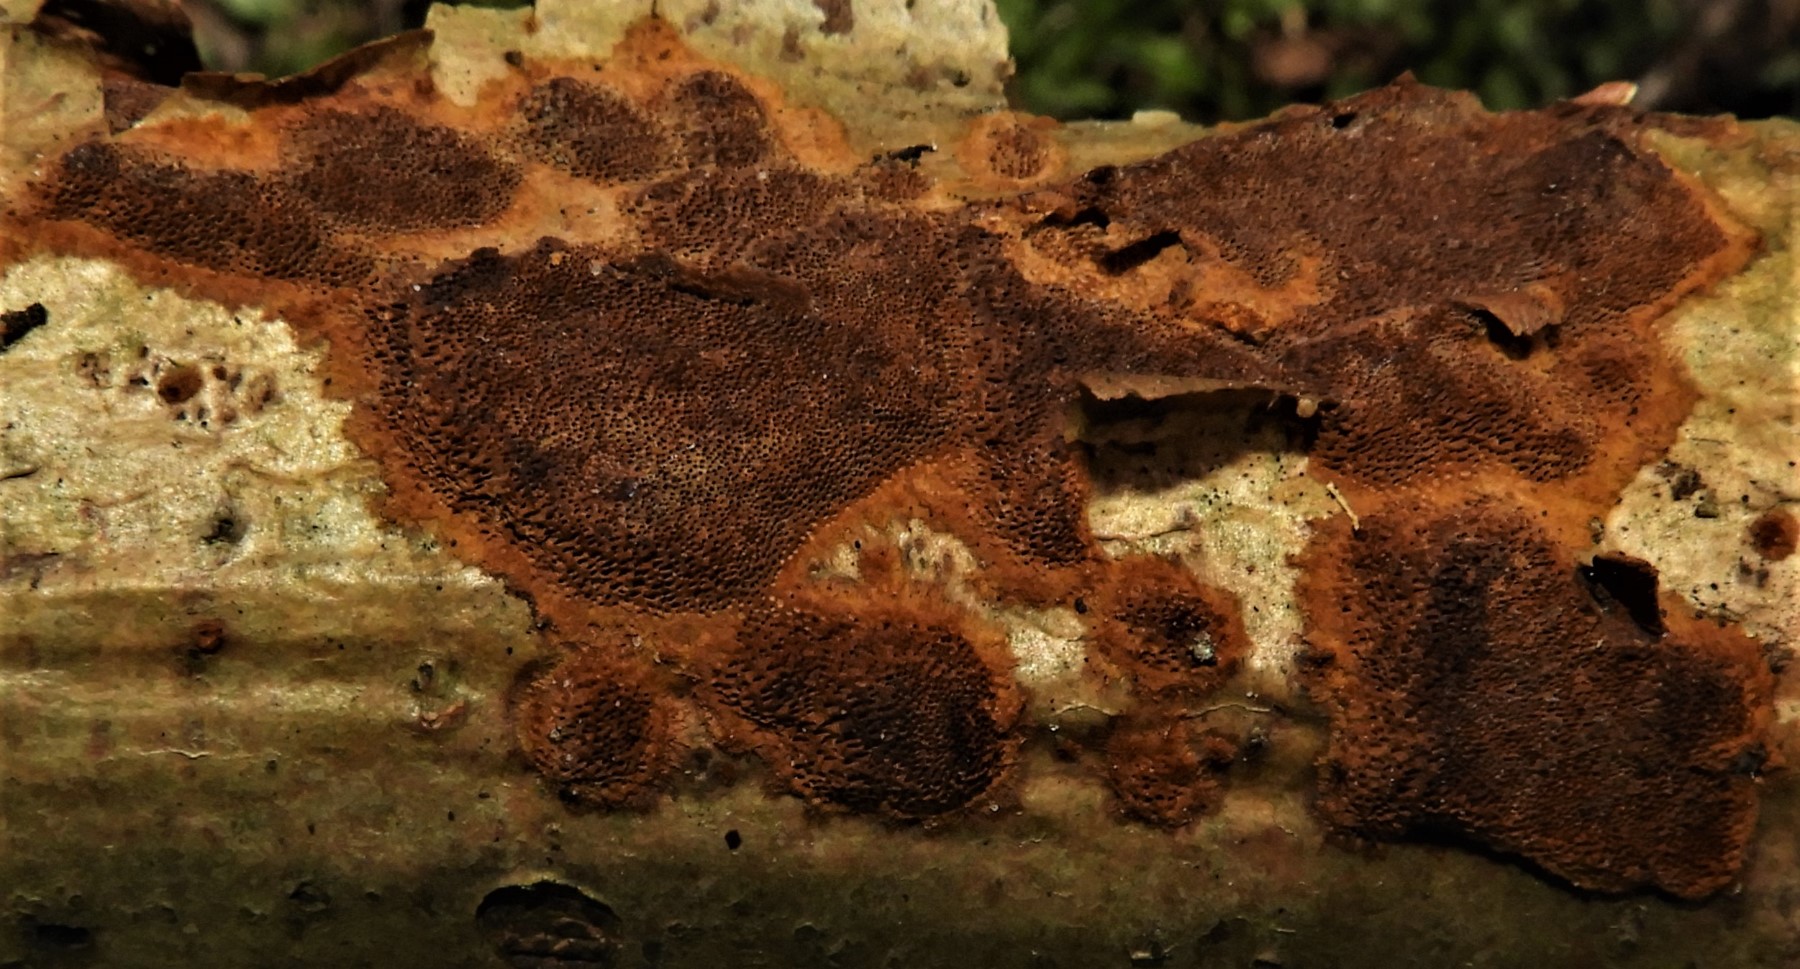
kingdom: Fungi
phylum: Basidiomycota
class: Agaricomycetes
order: Hymenochaetales
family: Hymenochaetaceae
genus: Fuscoporia
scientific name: Fuscoporia ferrea
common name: skorpe-ildporesvamp
